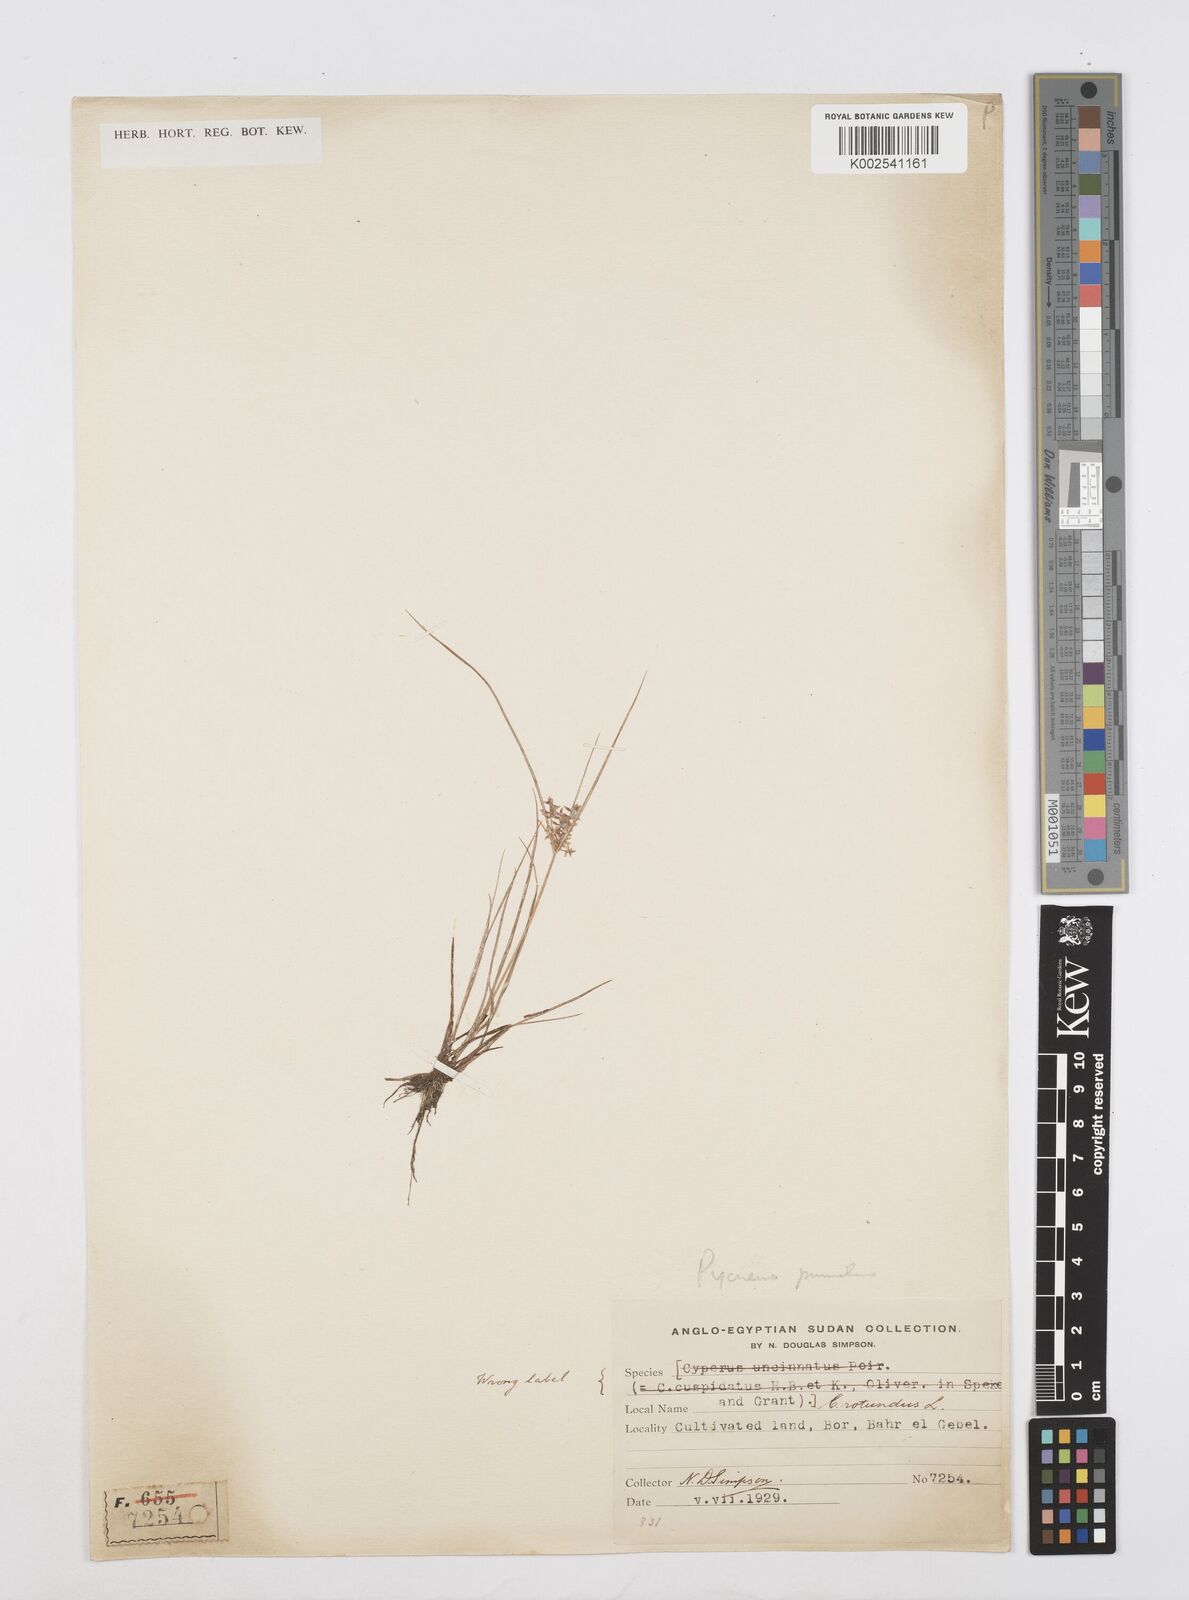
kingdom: Plantae
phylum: Tracheophyta
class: Liliopsida
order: Poales
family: Cyperaceae
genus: Cyperus
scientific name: Cyperus pumilus
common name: Low flatsedge
